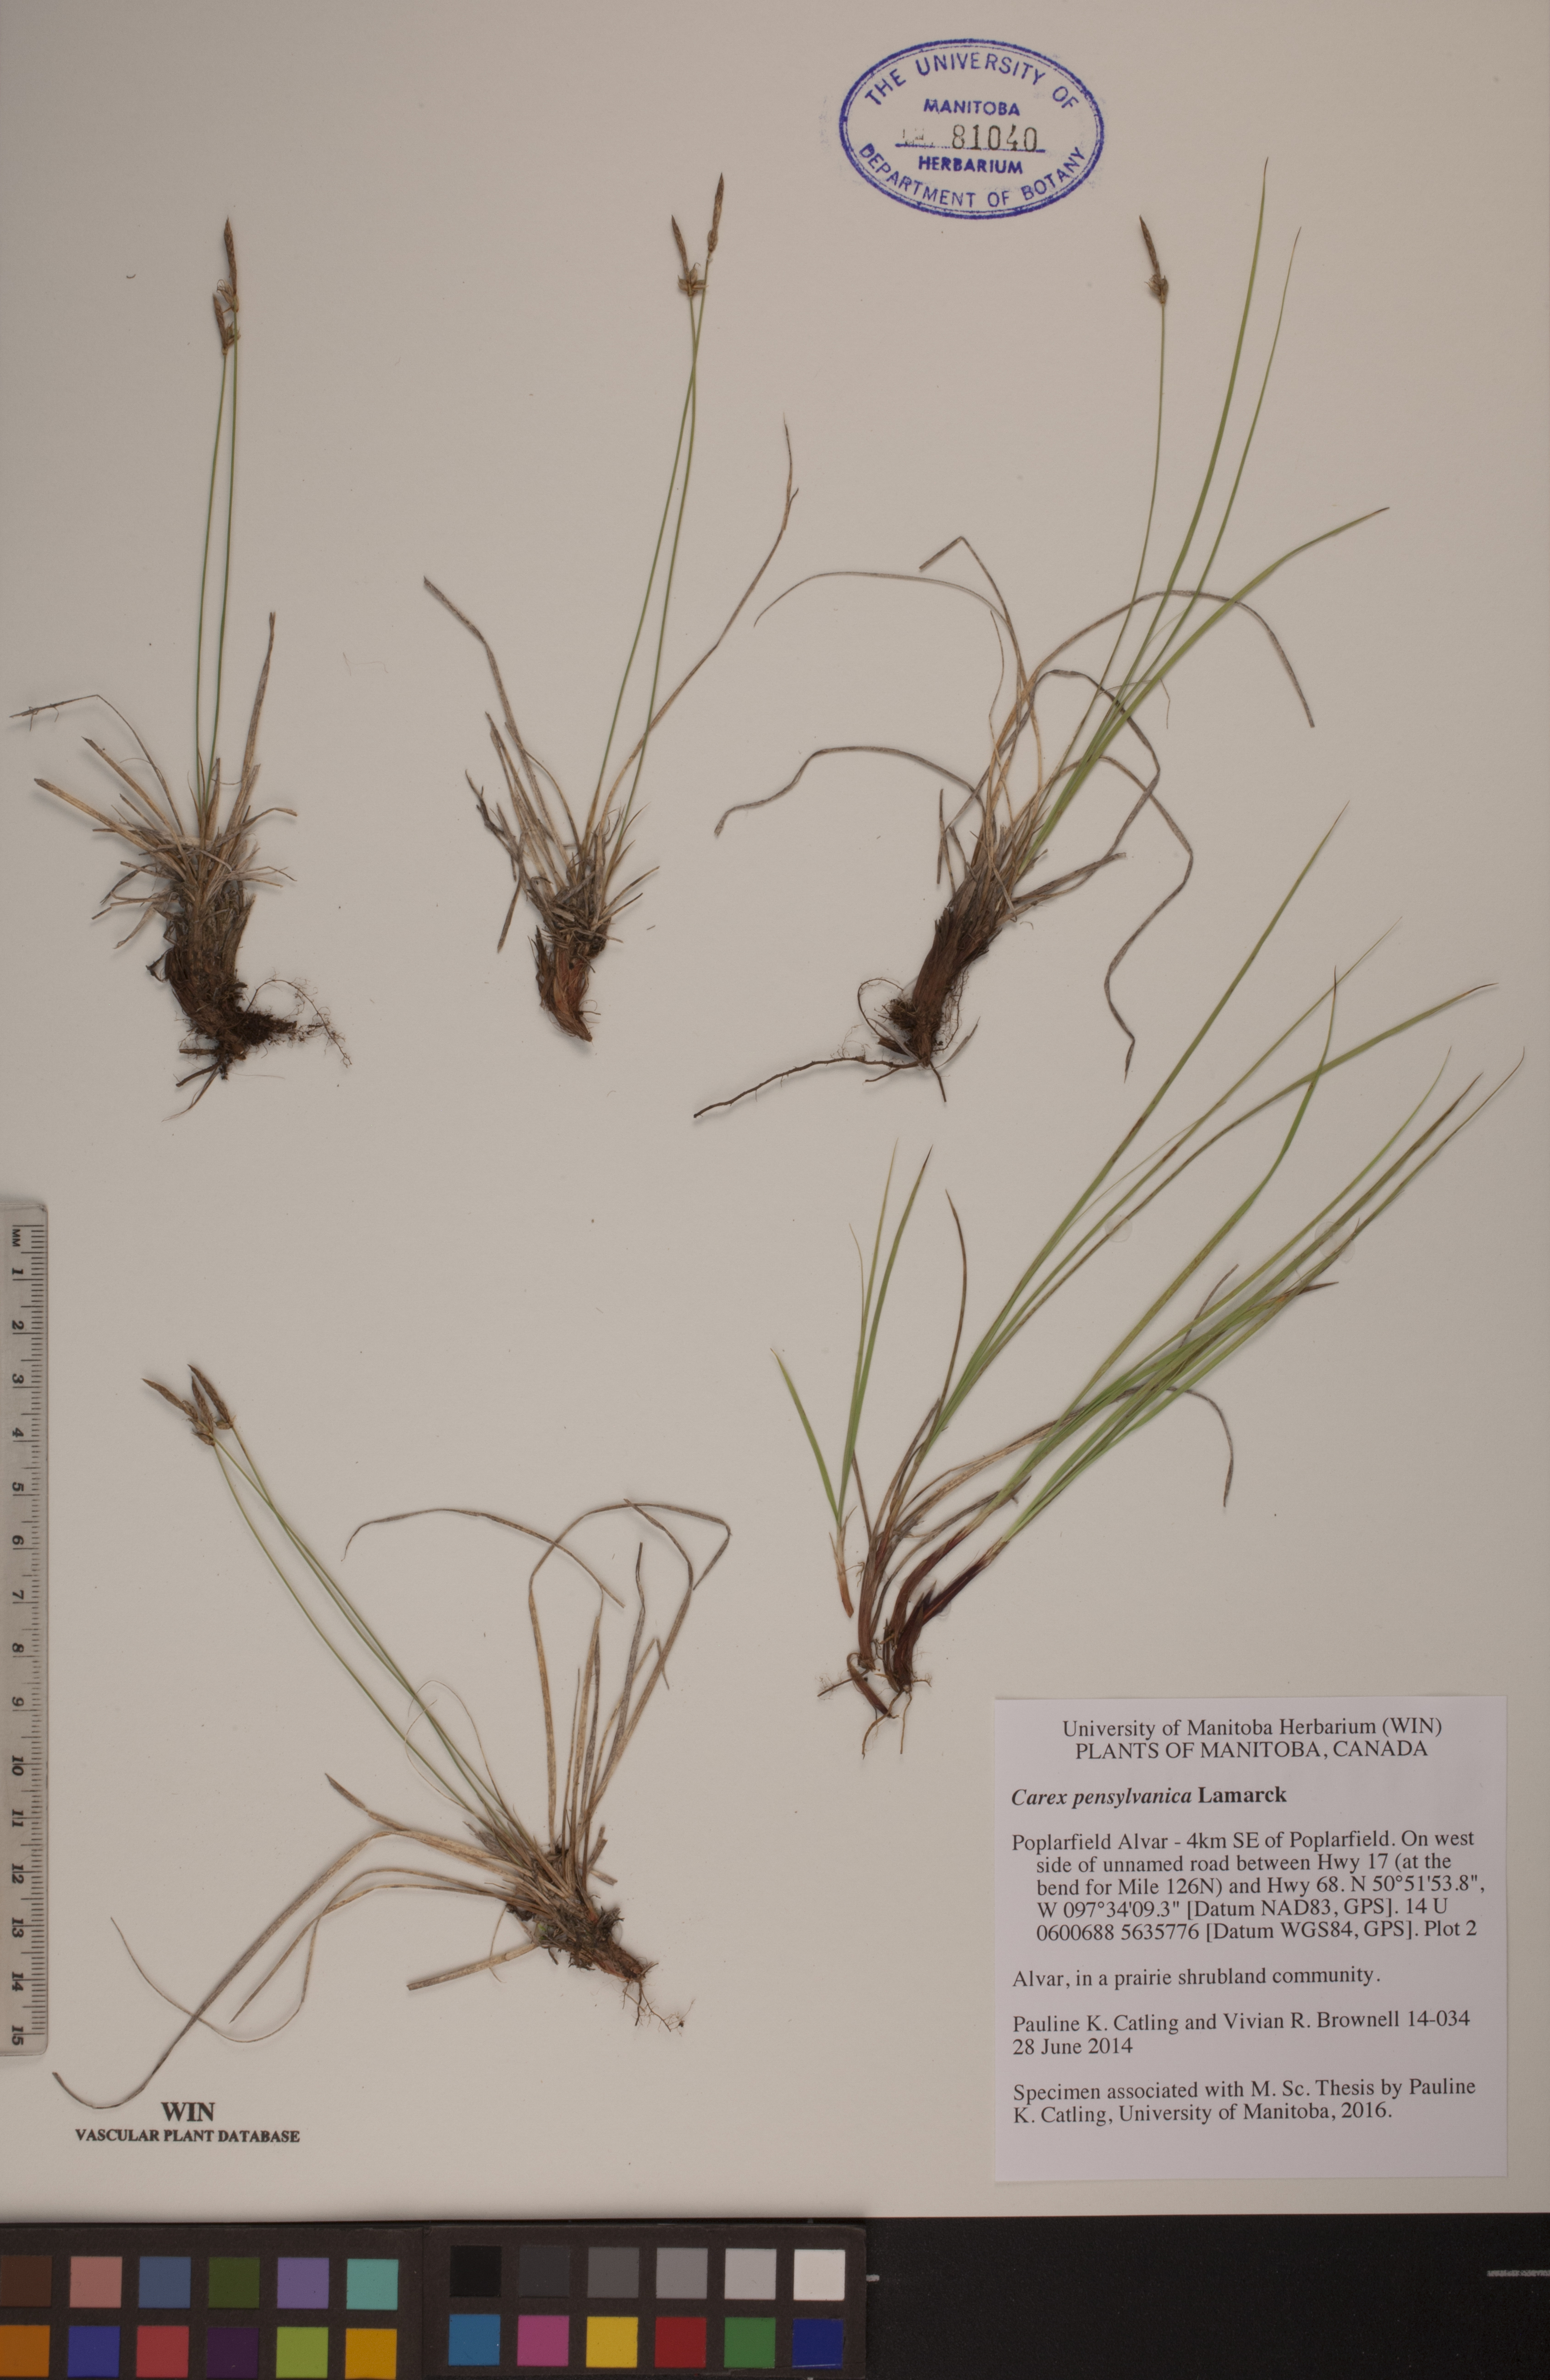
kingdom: Plantae
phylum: Tracheophyta
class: Liliopsida
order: Poales
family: Cyperaceae
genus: Carex
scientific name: Carex pensylvanica
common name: Common oak sedge
